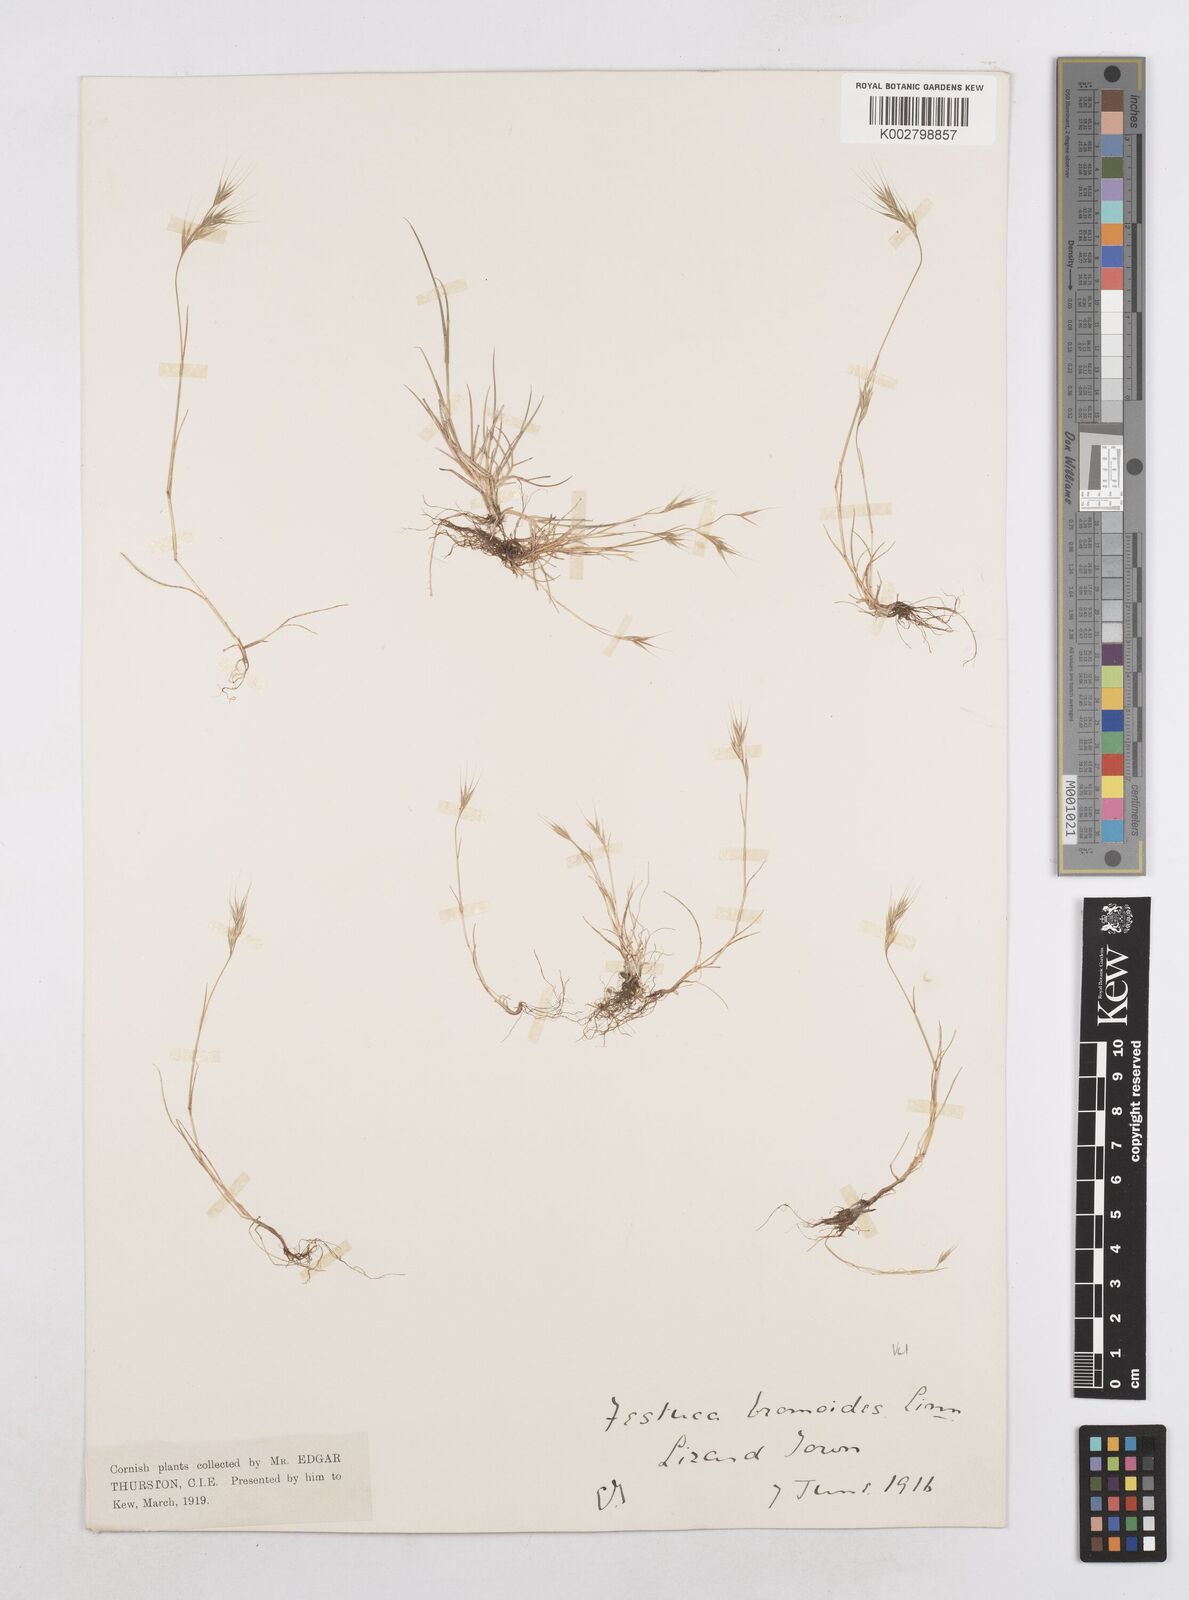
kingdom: Plantae
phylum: Tracheophyta
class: Liliopsida
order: Poales
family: Poaceae
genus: Festuca
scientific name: Festuca bromoides
